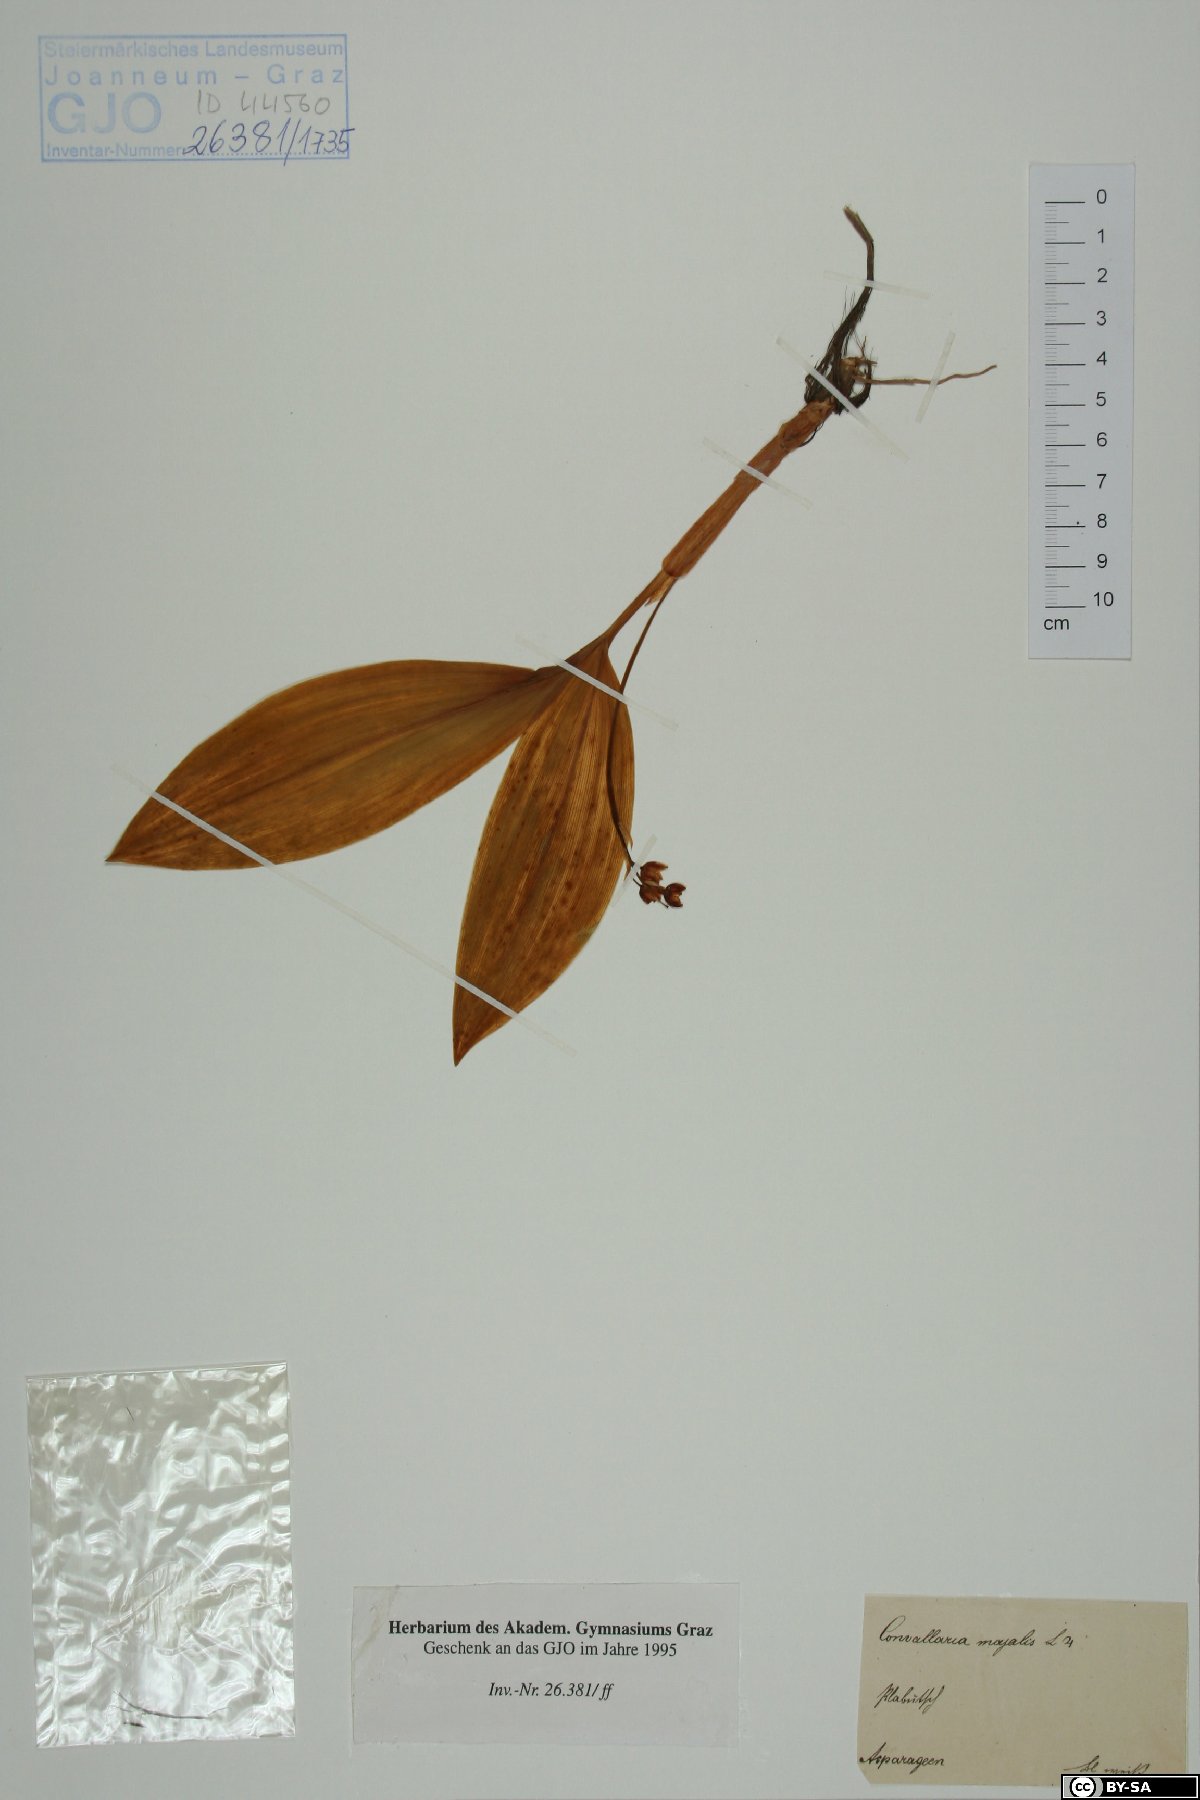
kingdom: Plantae
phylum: Tracheophyta
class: Liliopsida
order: Asparagales
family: Asparagaceae
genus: Convallaria
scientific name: Convallaria majalis
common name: Lily-of-the-valley
